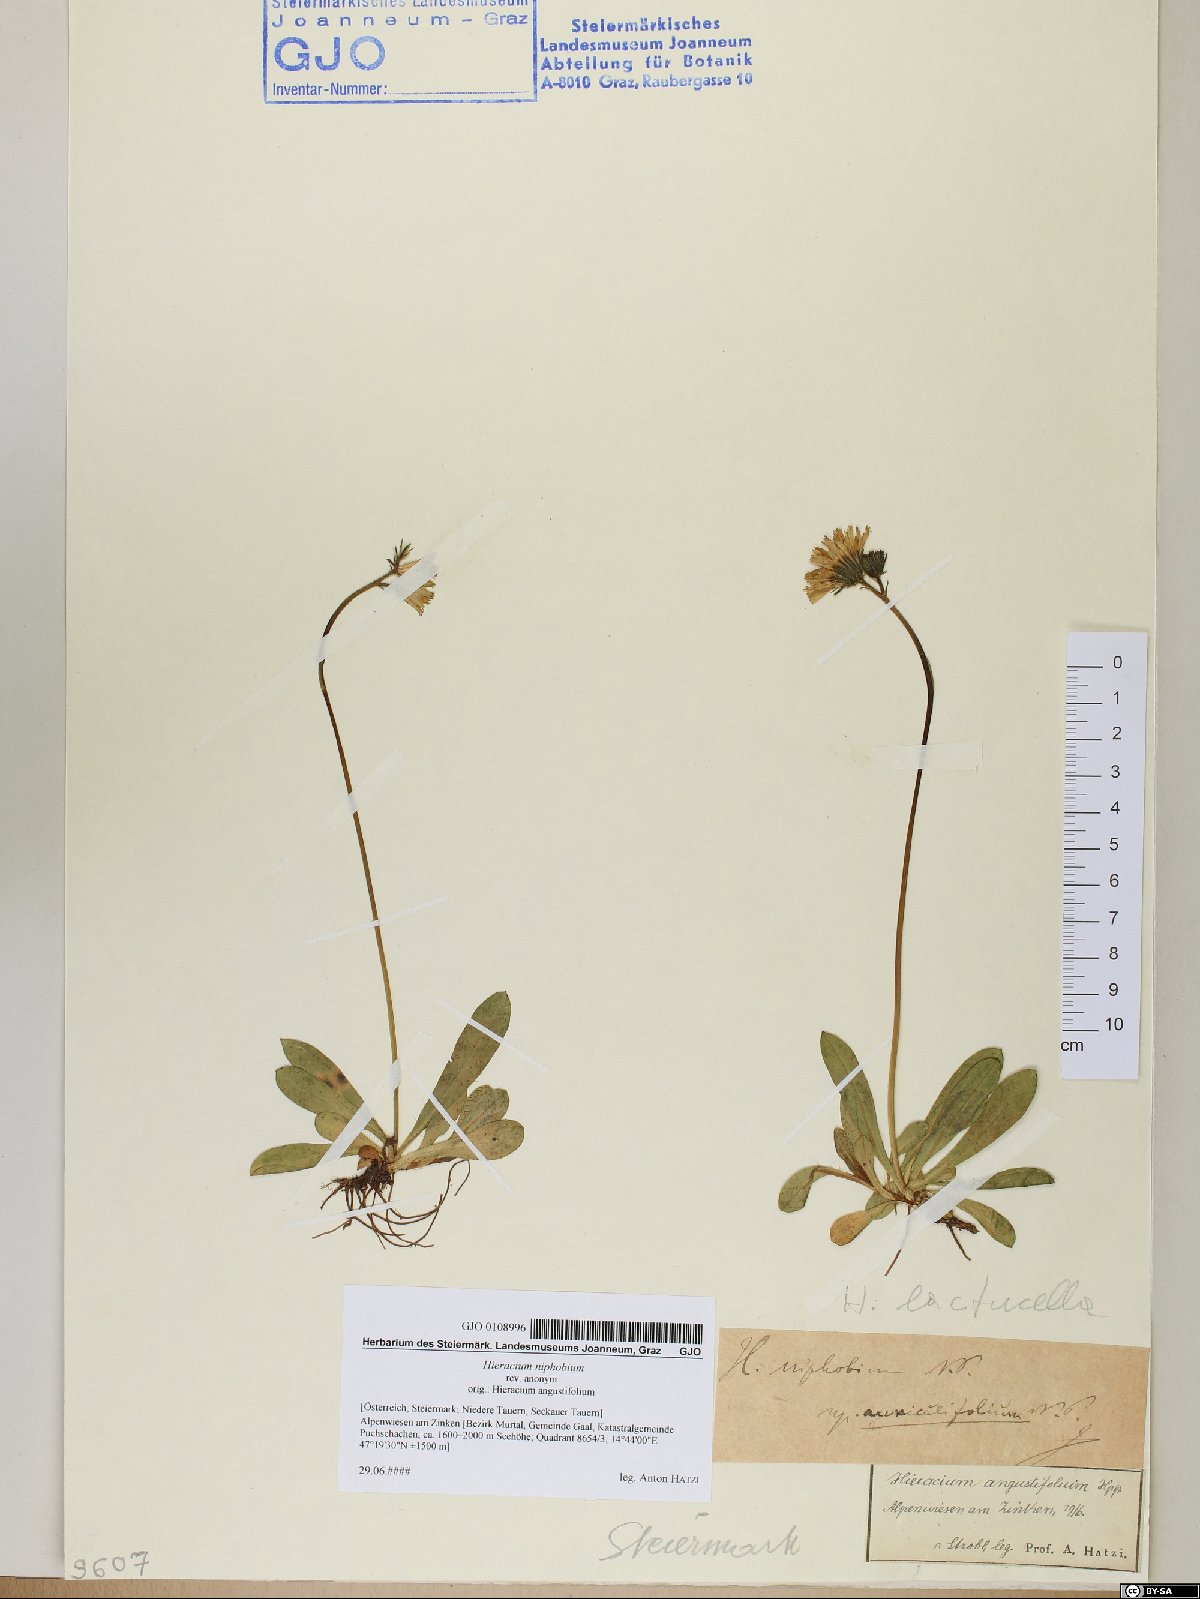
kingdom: Plantae
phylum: Tracheophyta
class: Magnoliopsida
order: Asterales
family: Asteraceae
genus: Pilosella
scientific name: Pilosella corymbuloides
